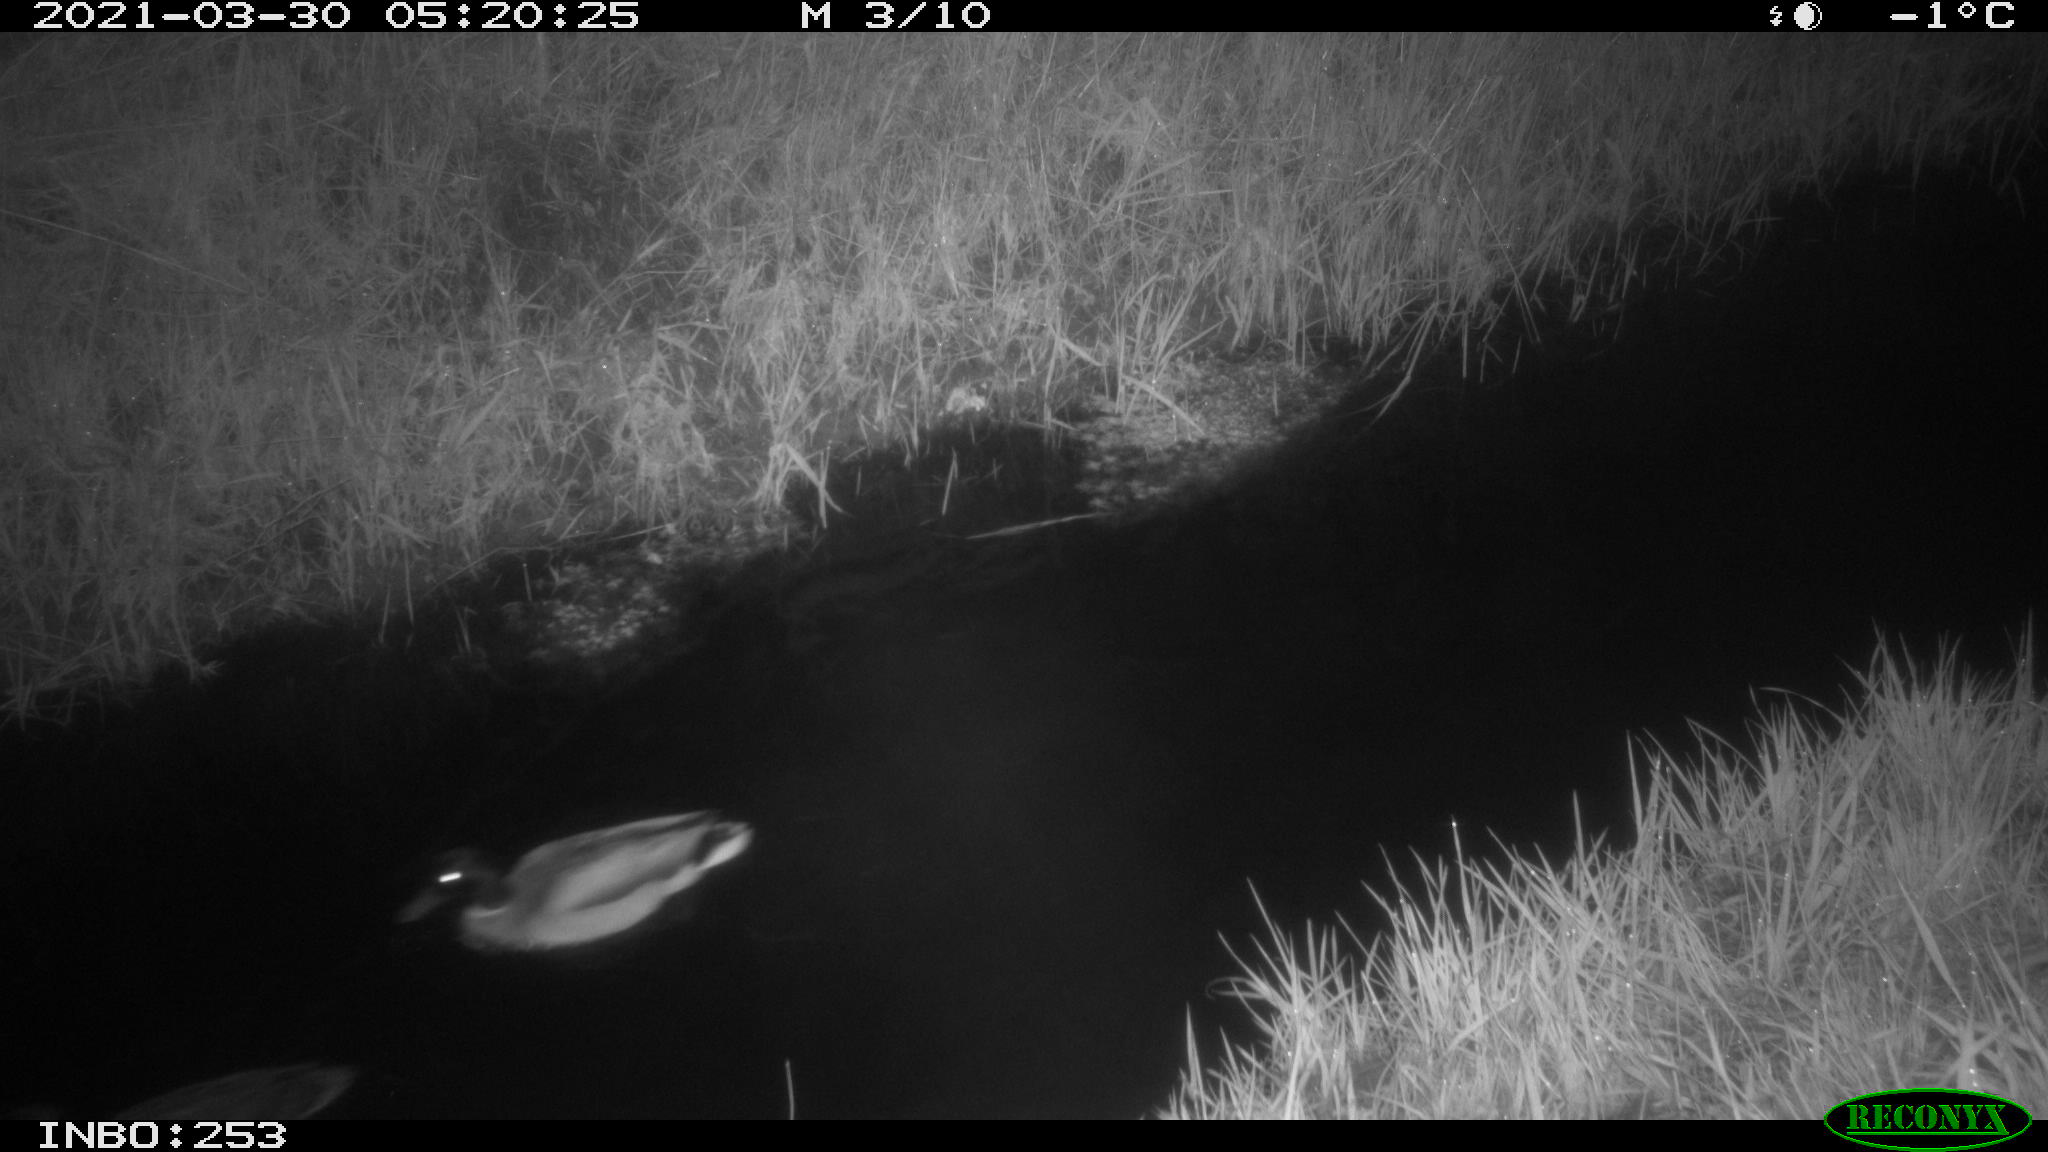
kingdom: Animalia
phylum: Chordata
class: Aves
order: Anseriformes
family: Anatidae
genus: Anas
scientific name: Anas platyrhynchos
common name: Mallard
